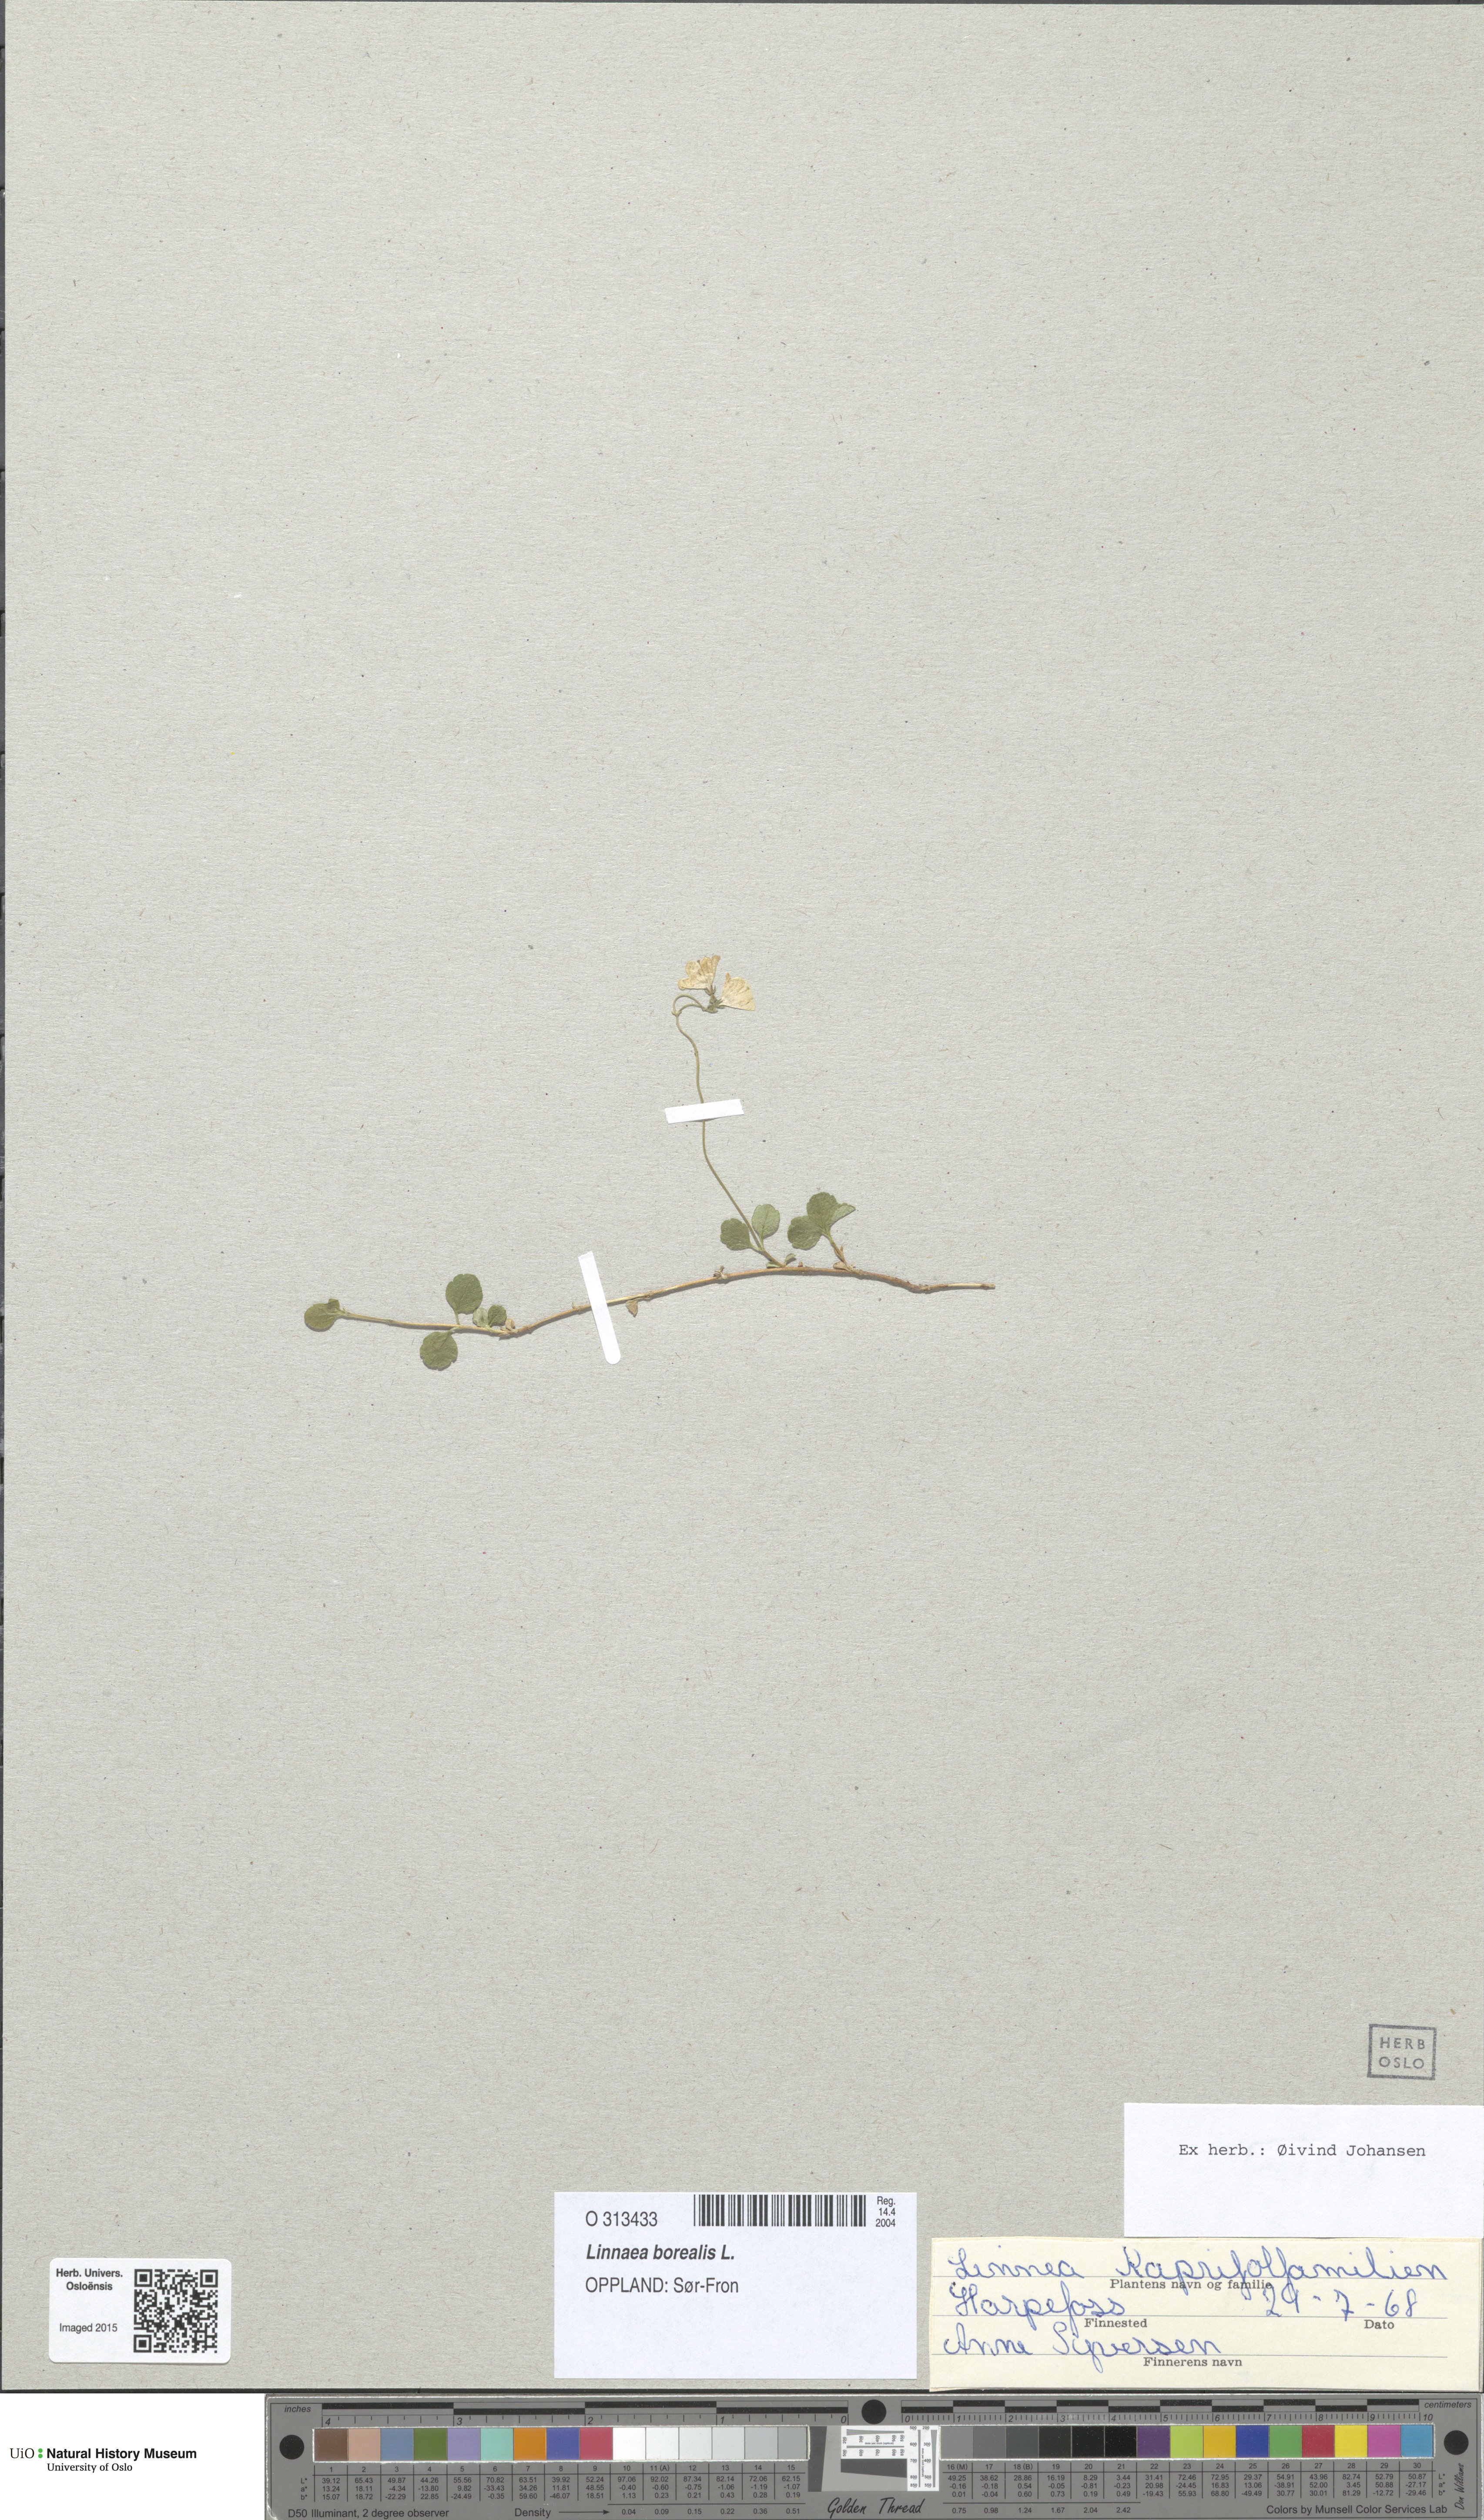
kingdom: Plantae
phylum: Tracheophyta
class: Magnoliopsida
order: Dipsacales
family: Caprifoliaceae
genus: Linnaea
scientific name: Linnaea borealis
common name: Twinflower
